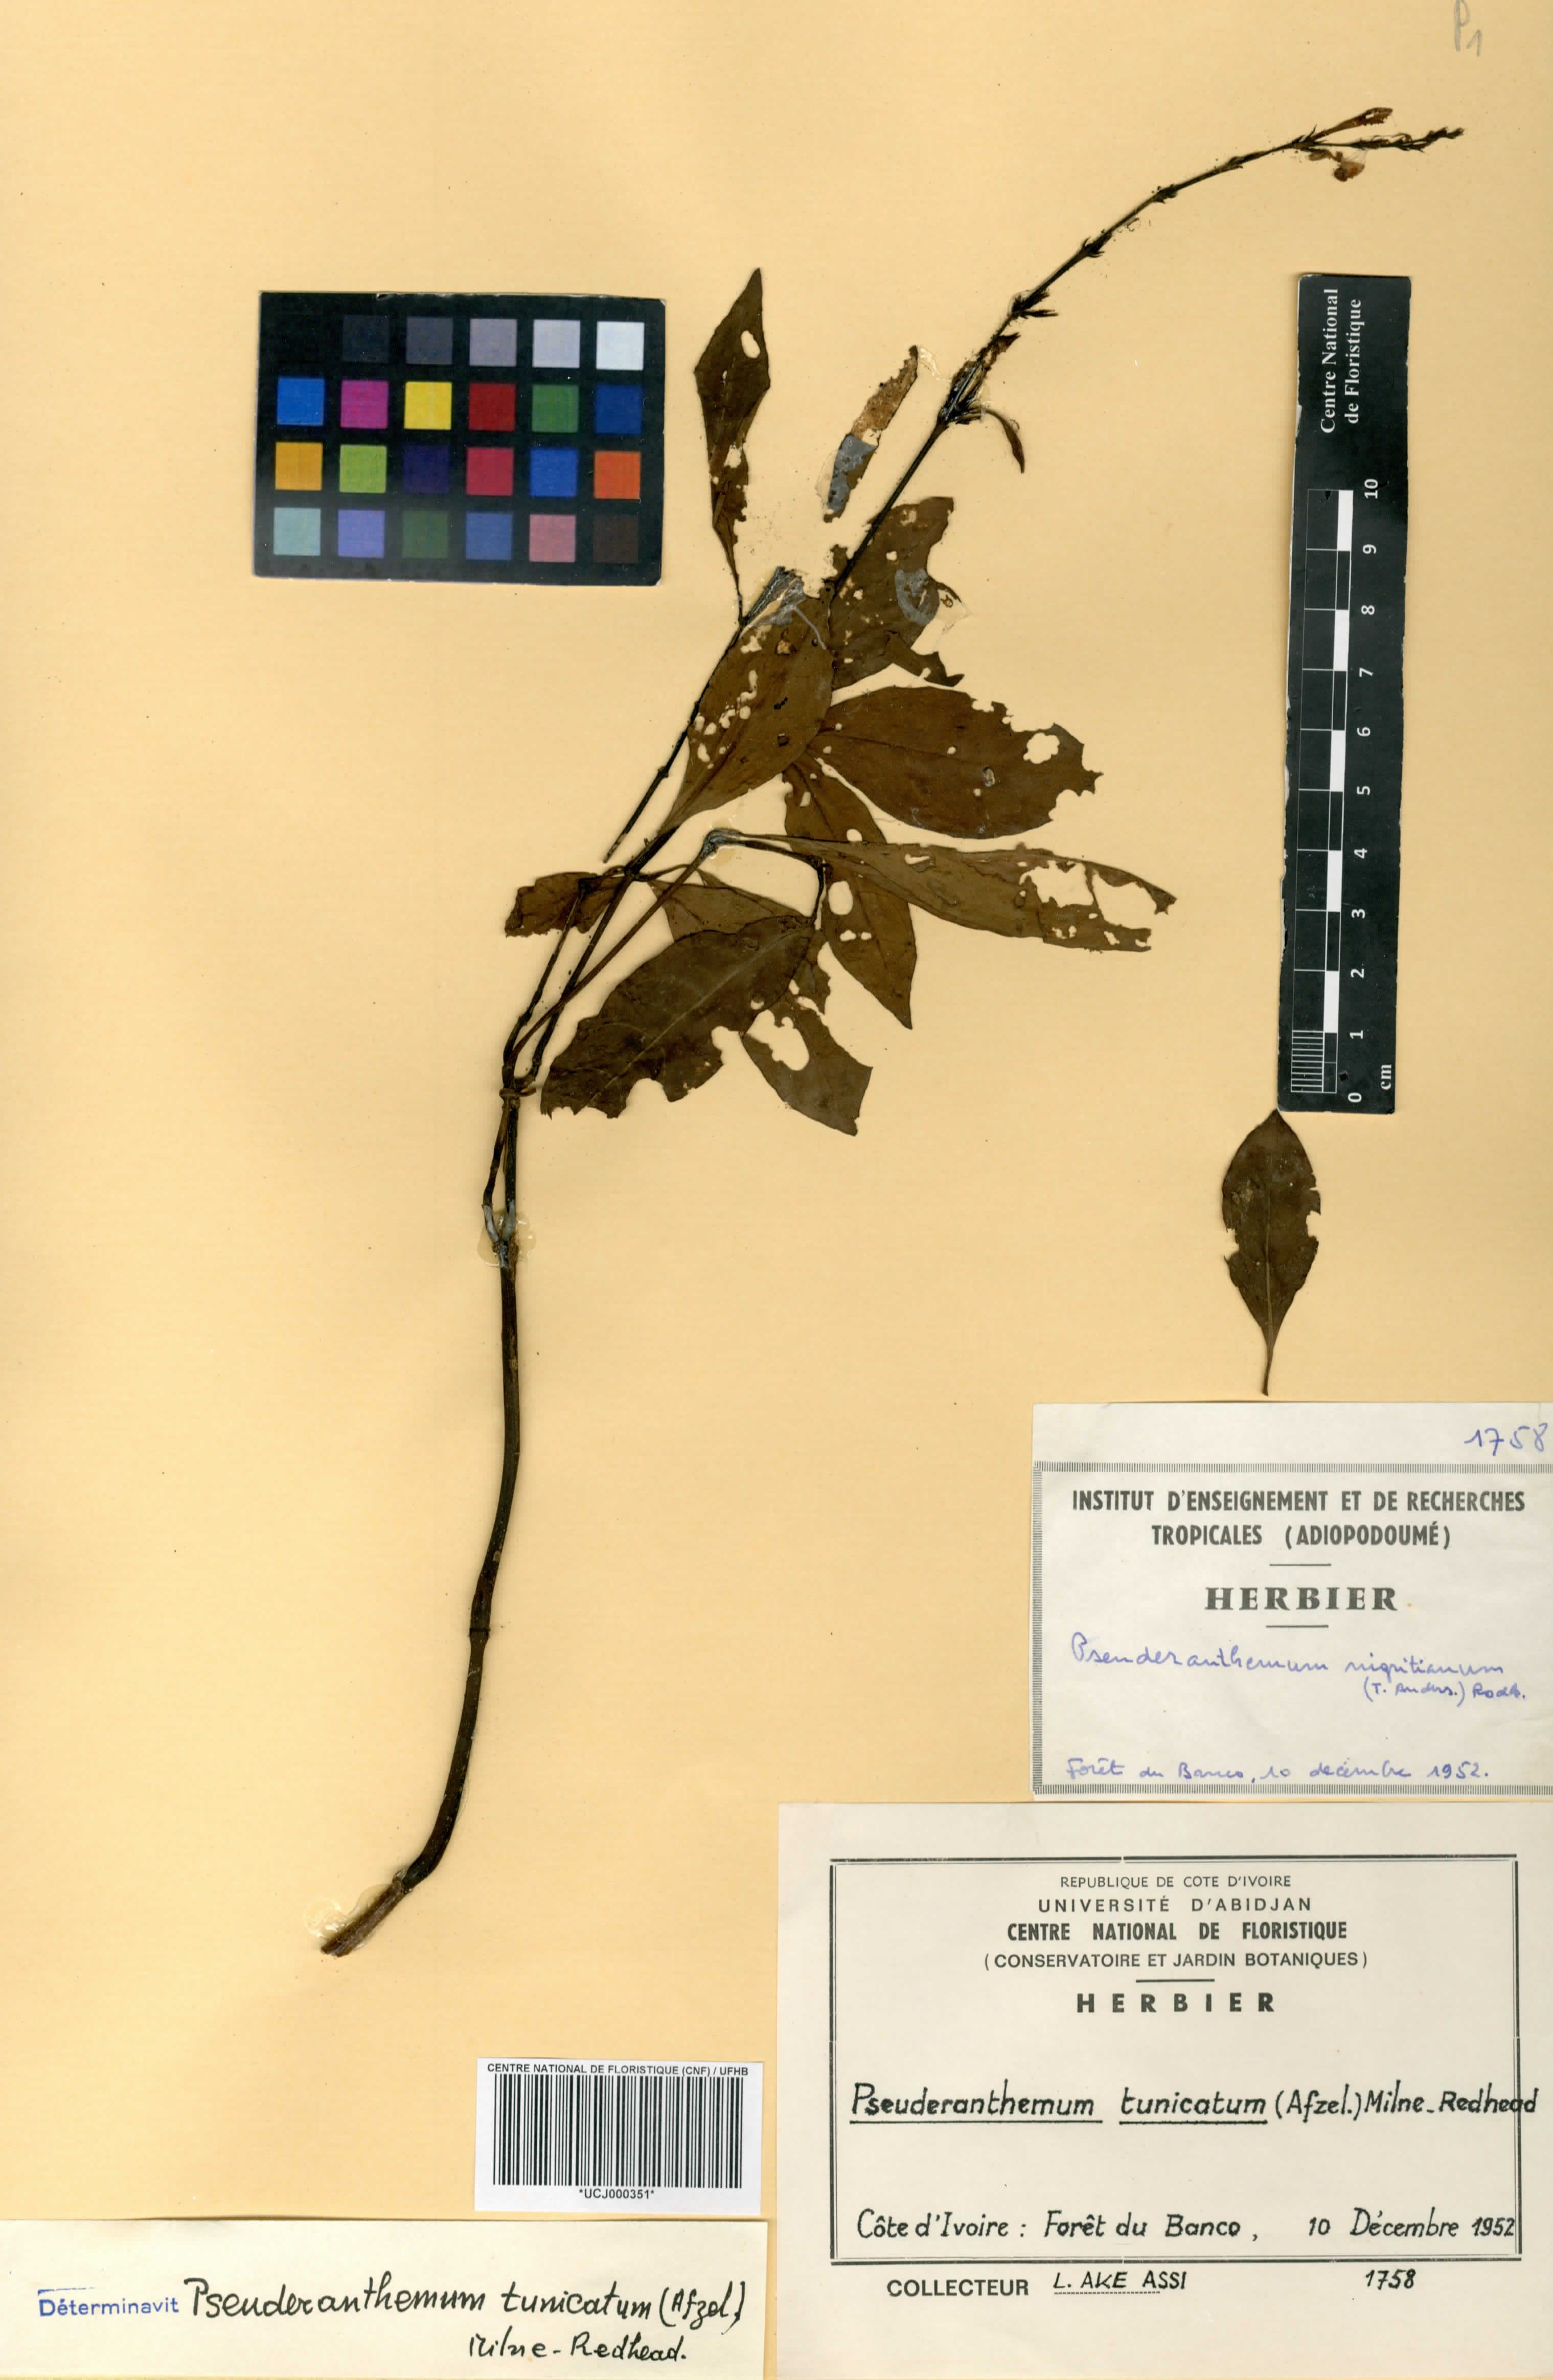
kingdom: Plantae
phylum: Tracheophyta
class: Magnoliopsida
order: Lamiales
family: Acanthaceae
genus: Pseuderanthemum
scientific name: Pseuderanthemum tunicatum
